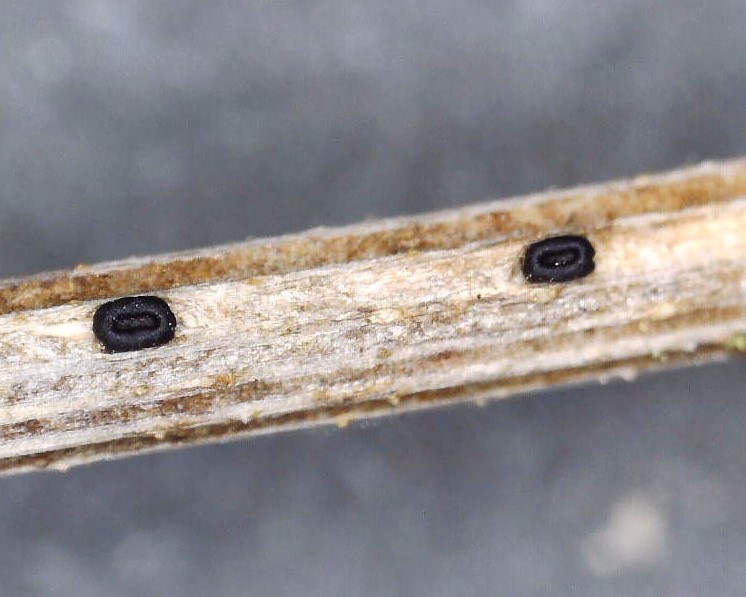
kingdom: Fungi
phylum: Ascomycota
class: Leotiomycetes
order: Helotiales
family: Heterosphaeriaceae
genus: Heterosphaeria
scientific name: Heterosphaeria
